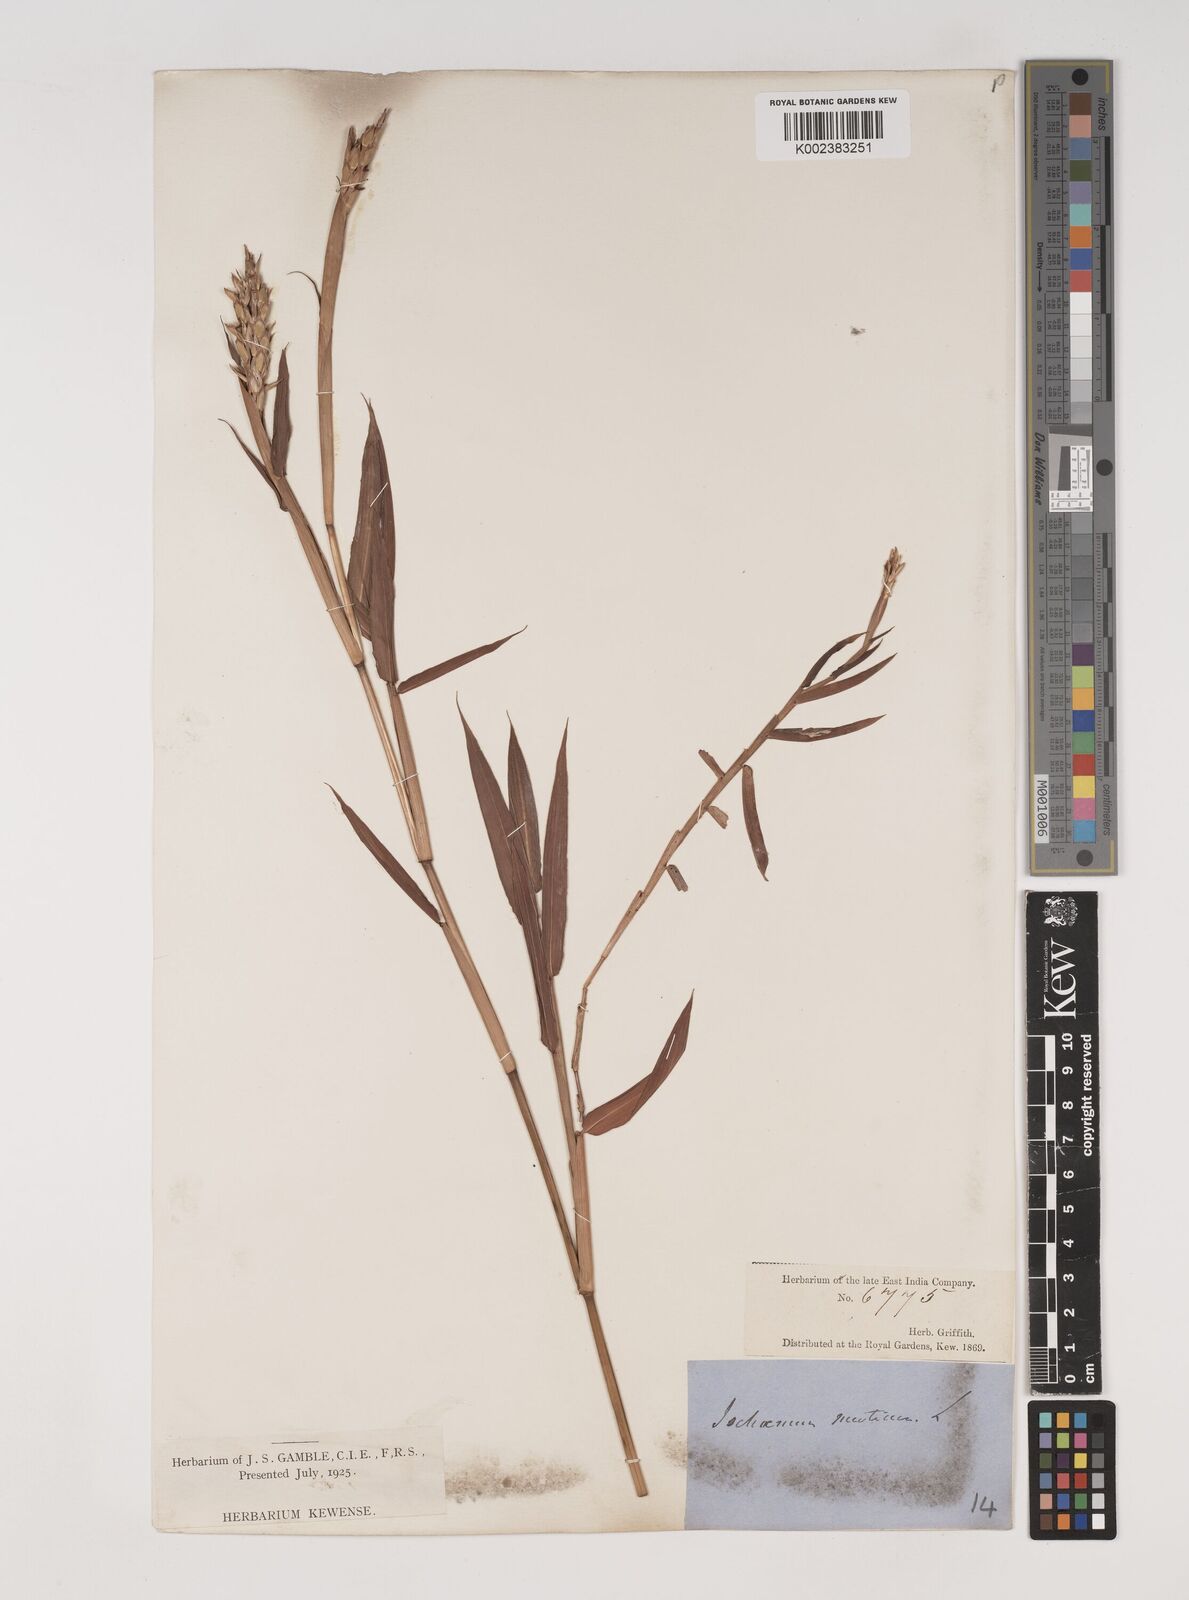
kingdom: Plantae
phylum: Tracheophyta
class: Liliopsida
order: Poales
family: Poaceae
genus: Ischaemum
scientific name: Ischaemum muticum
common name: Drought grass
